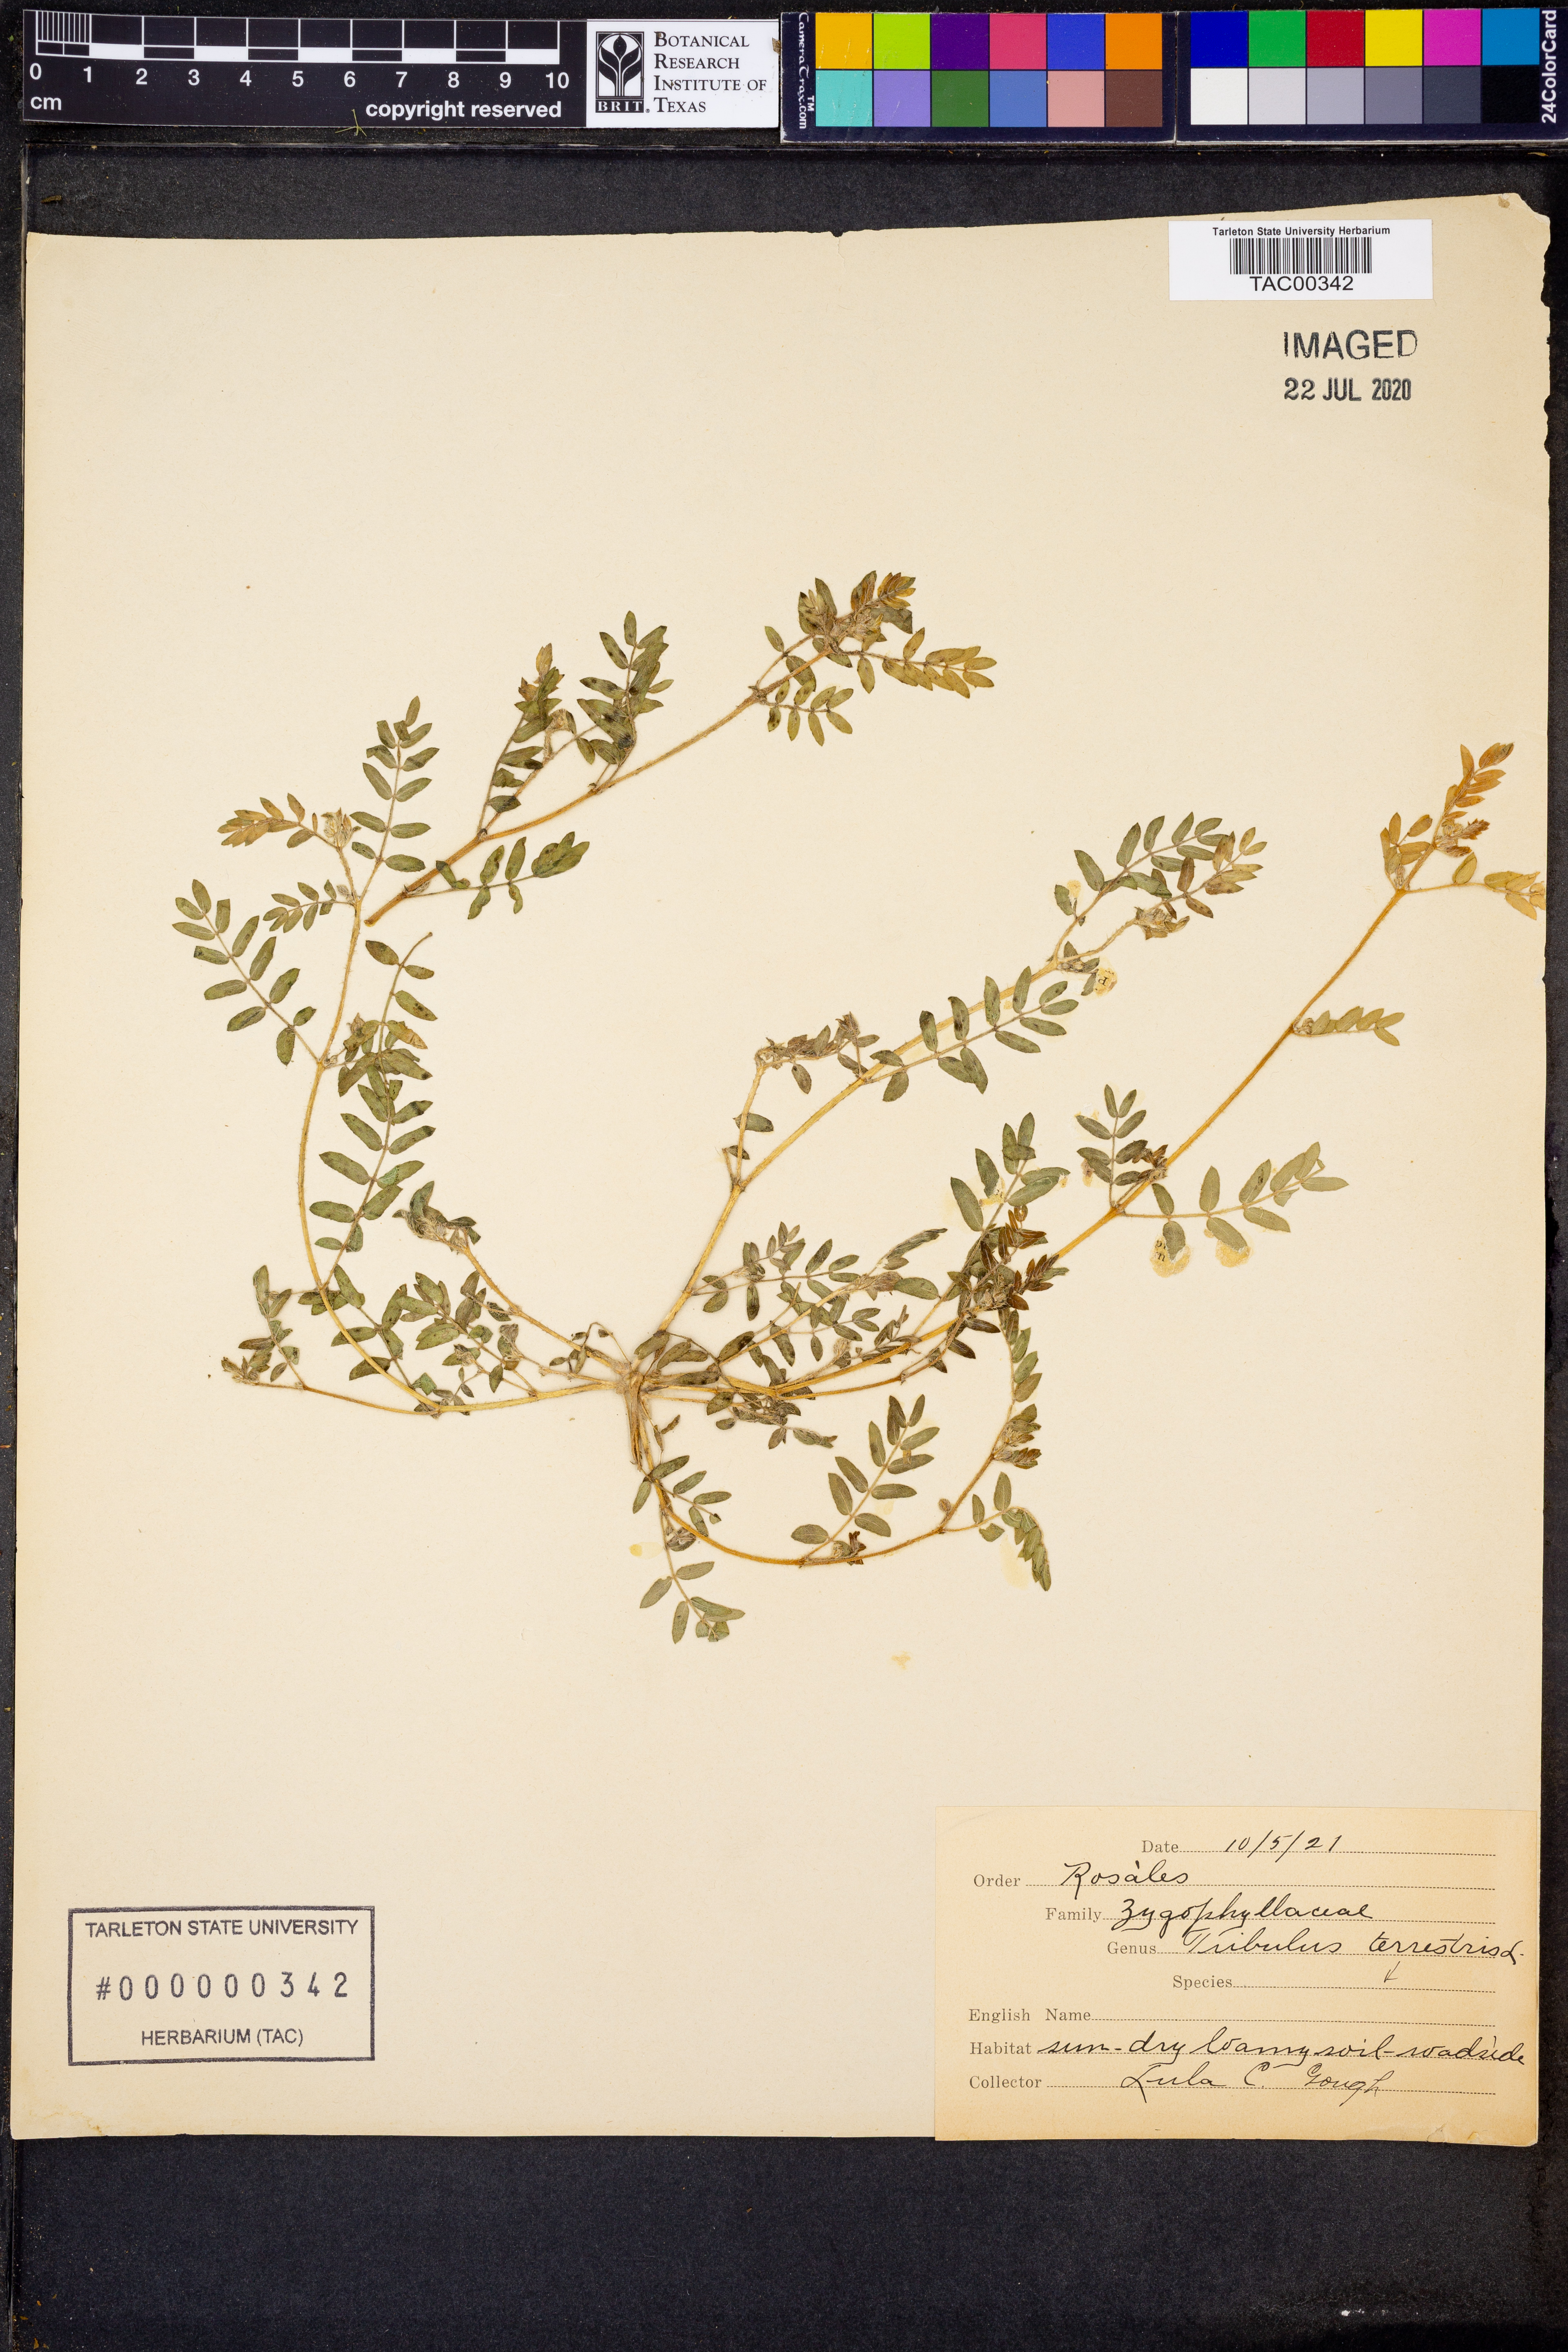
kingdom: Plantae
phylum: Tracheophyta
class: Magnoliopsida
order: Zygophyllales
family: Zygophyllaceae
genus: Tribulus
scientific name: Tribulus terrestris
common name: Puncturevine
